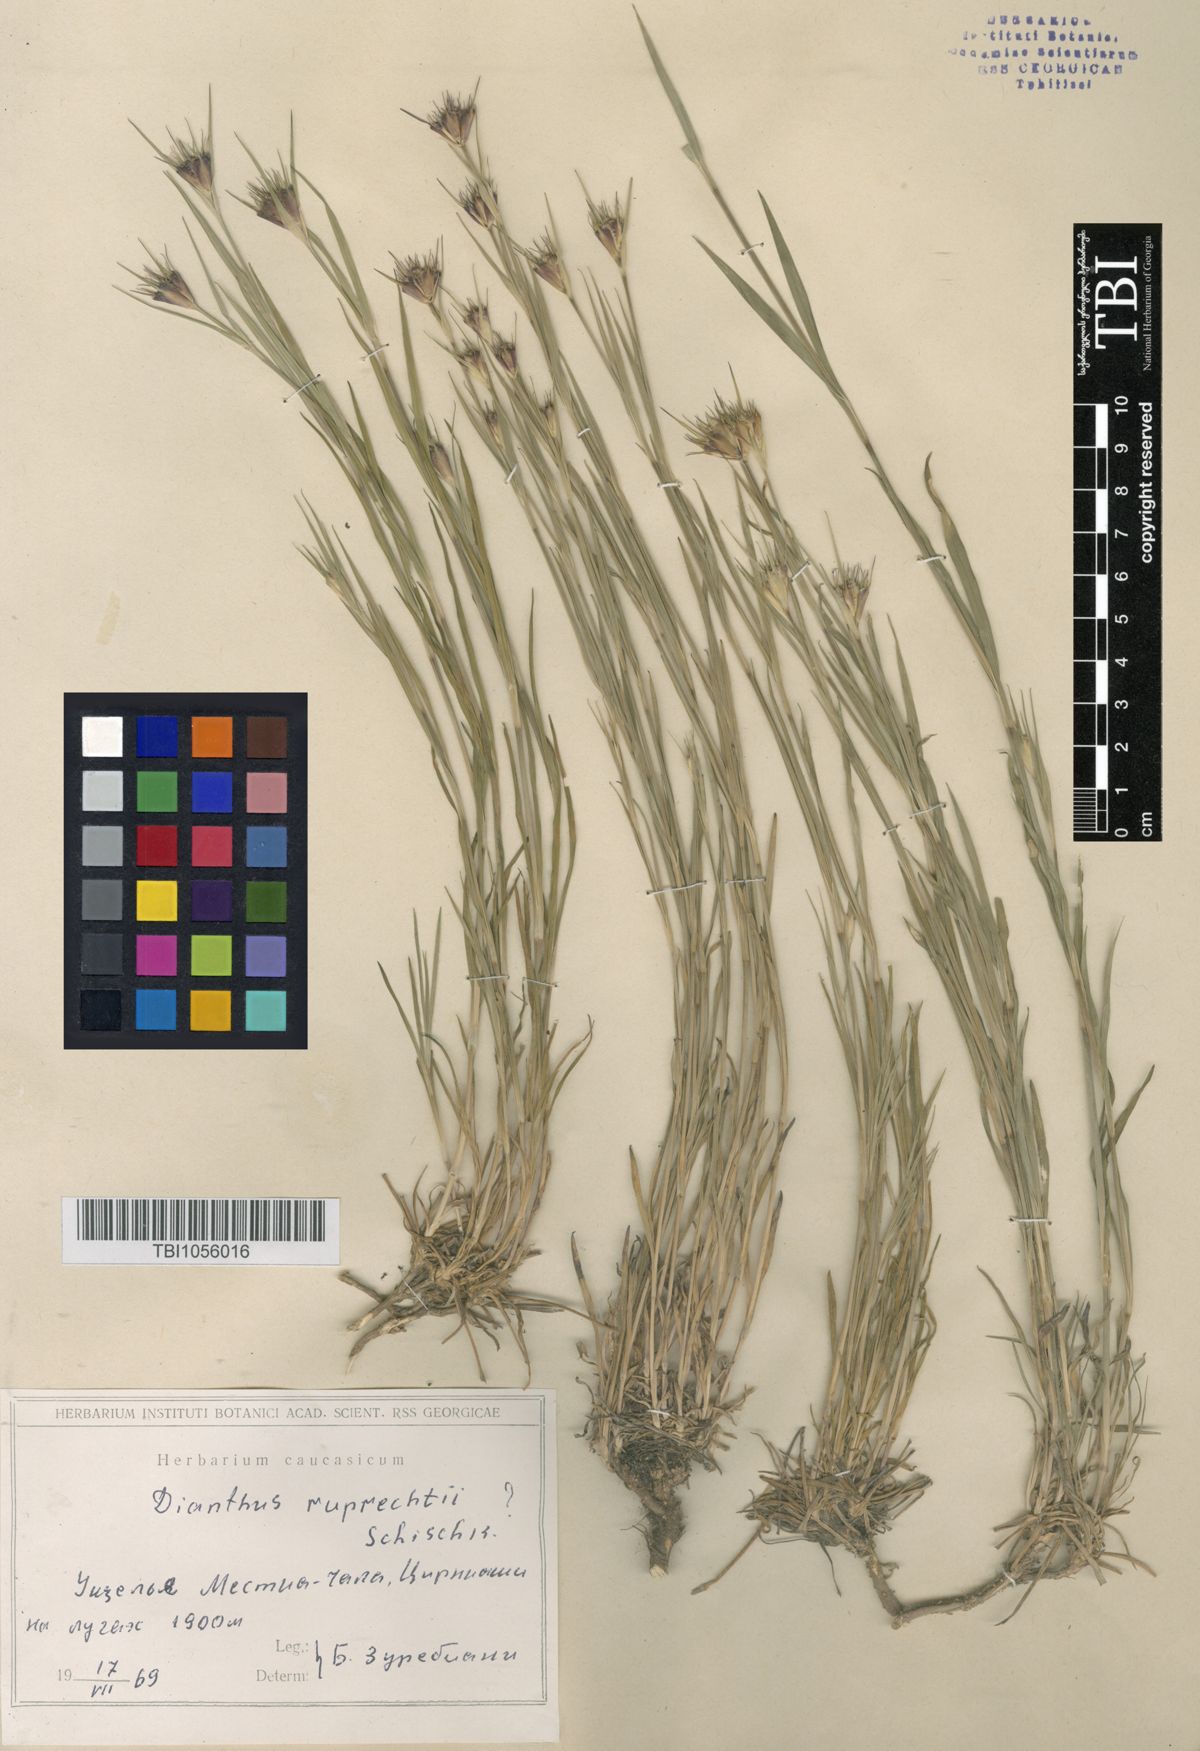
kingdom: Plantae
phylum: Tracheophyta
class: Magnoliopsida
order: Caryophyllales
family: Caryophyllaceae
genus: Dianthus
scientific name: Dianthus ruprechtii
